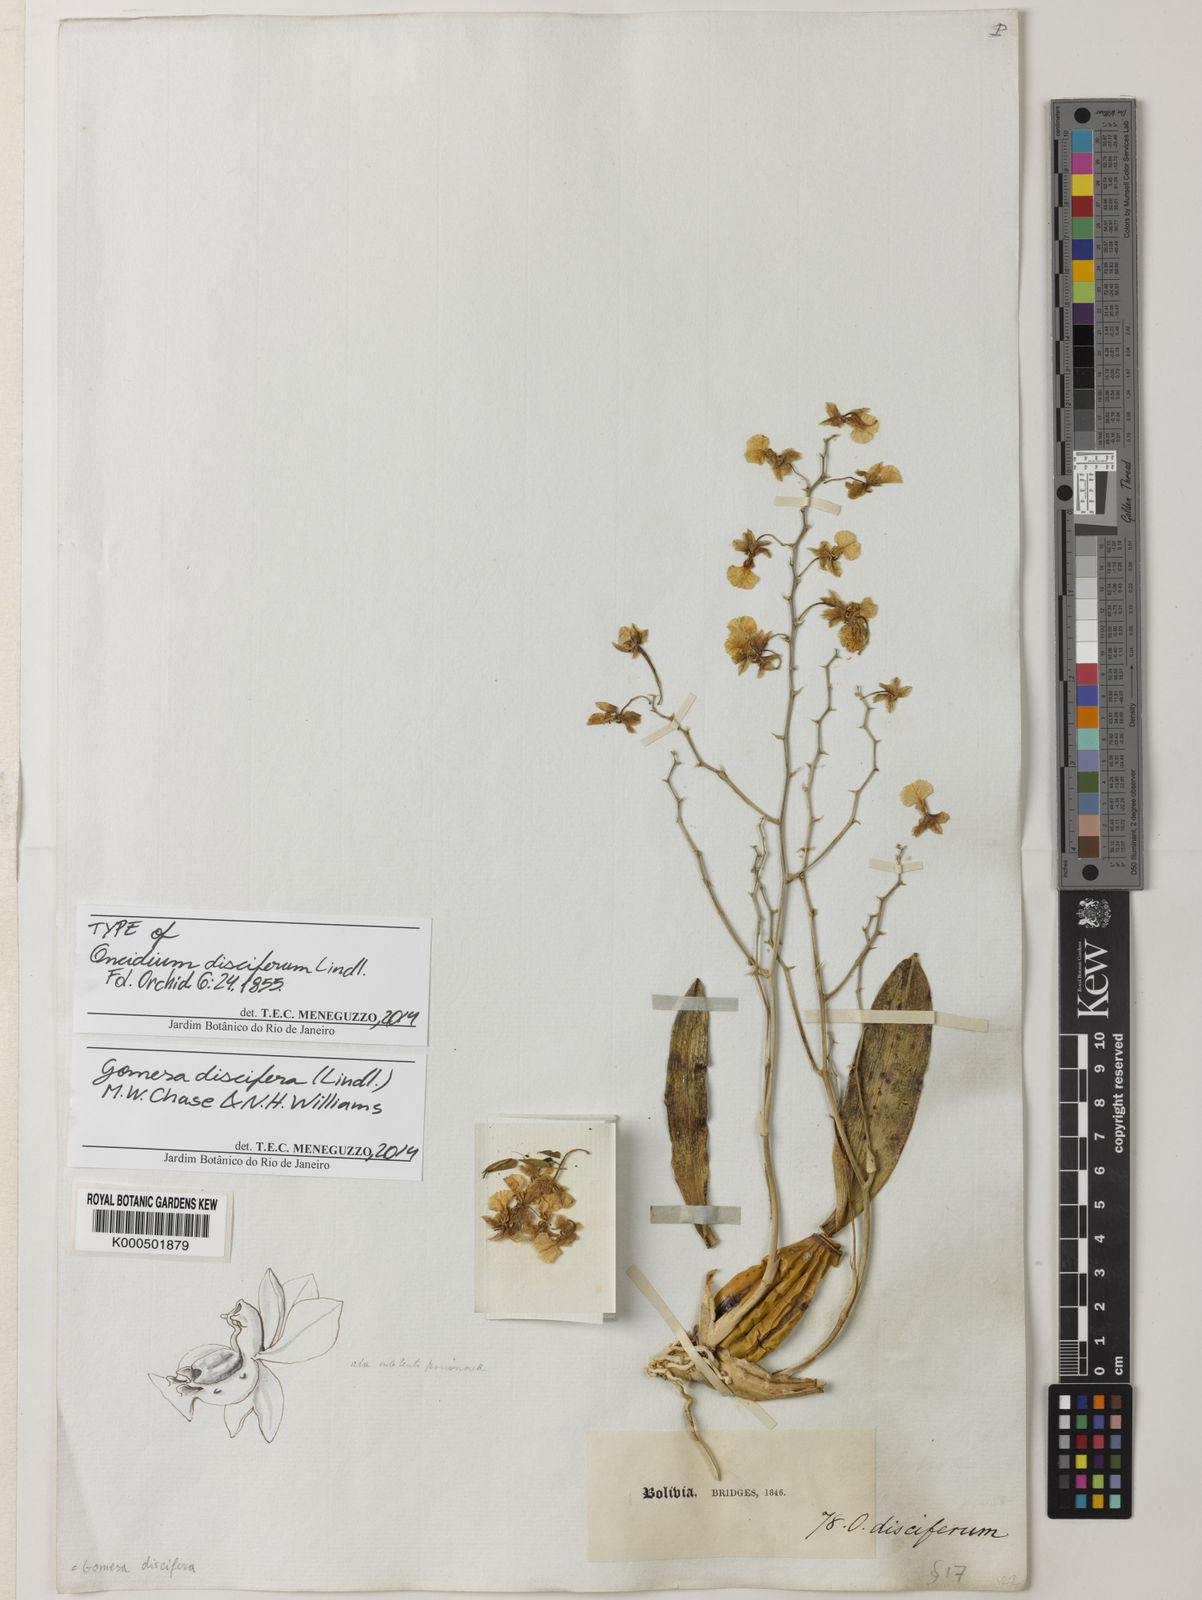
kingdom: Plantae
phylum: Tracheophyta
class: Liliopsida
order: Asparagales
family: Orchidaceae
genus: Gomesa
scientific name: Gomesa discifera
